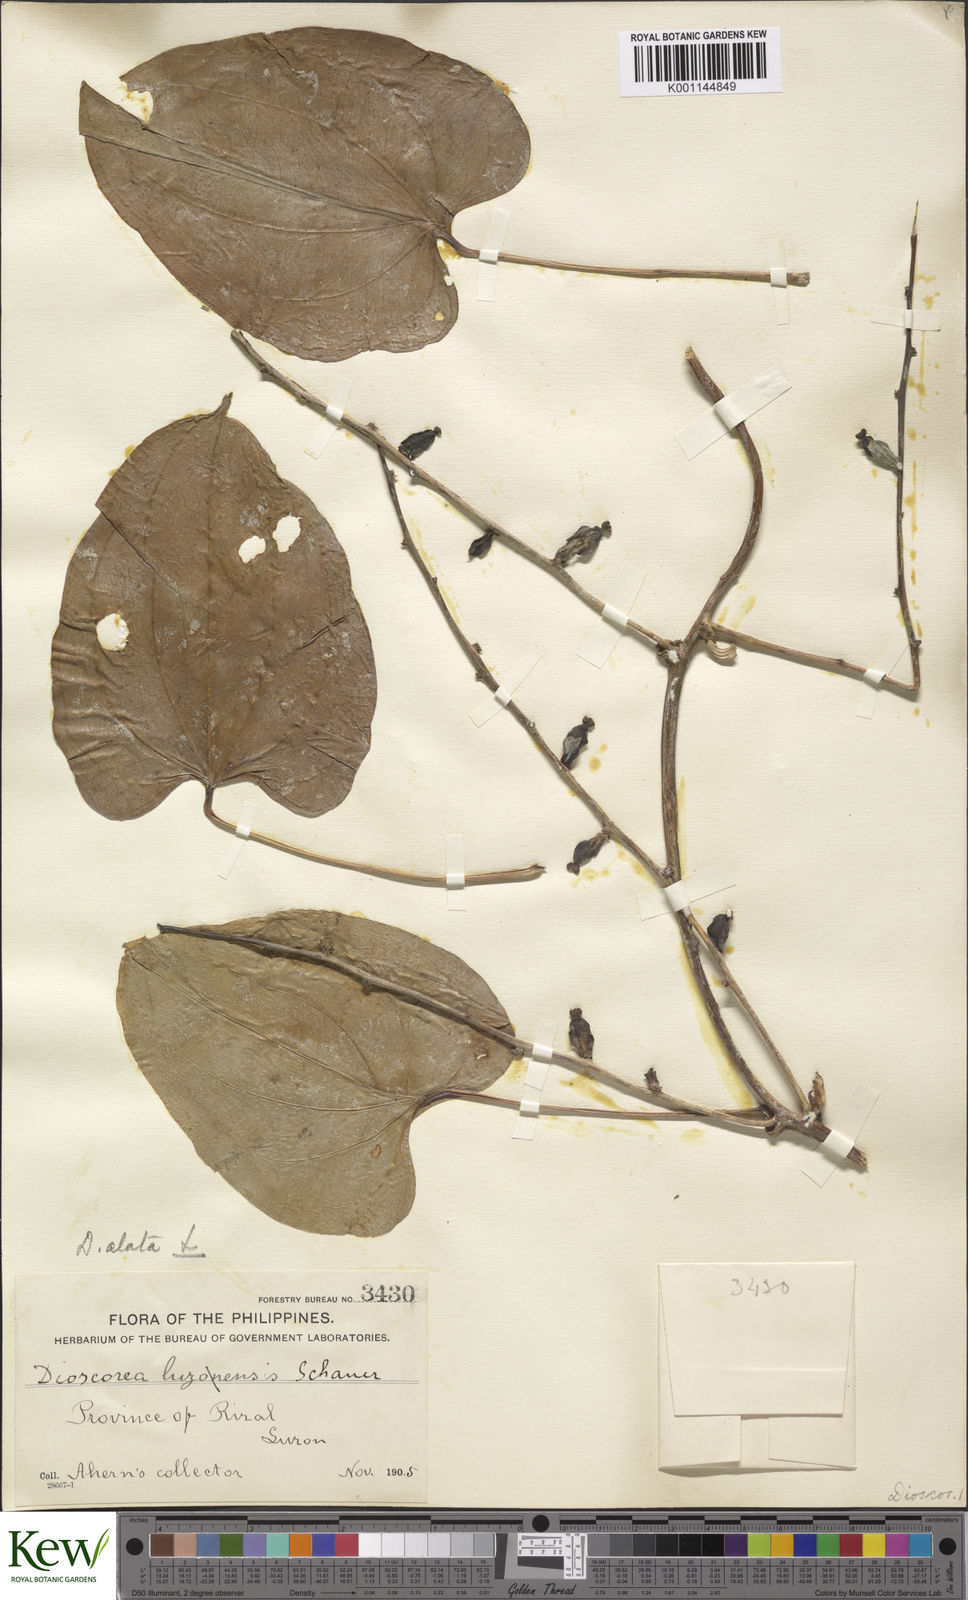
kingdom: Plantae
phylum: Tracheophyta
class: Liliopsida
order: Dioscoreales
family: Dioscoreaceae
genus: Dioscorea
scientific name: Dioscorea alata
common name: Water yam
